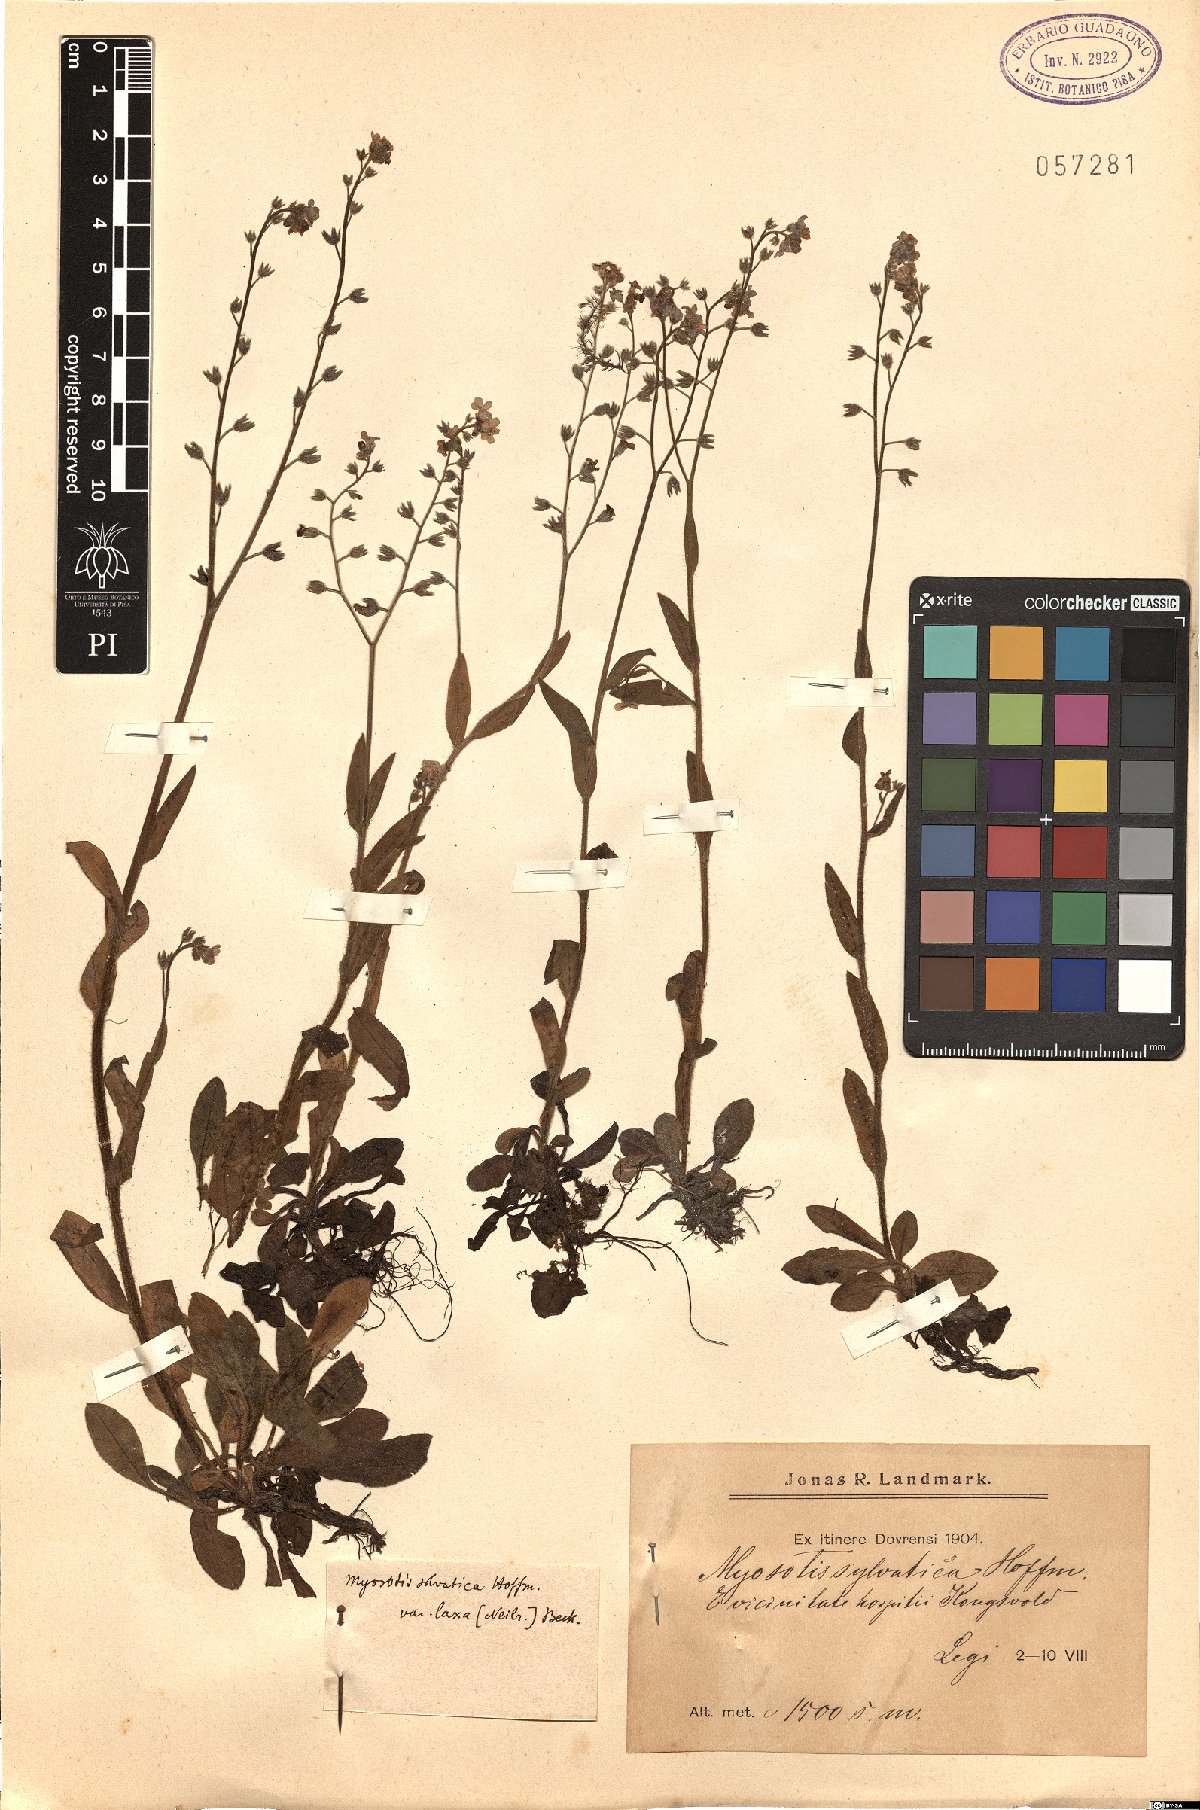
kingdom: Plantae
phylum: Tracheophyta
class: Magnoliopsida
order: Boraginales
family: Boraginaceae
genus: Myosotis
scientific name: Myosotis sylvatica
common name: Wood forget-me-not
